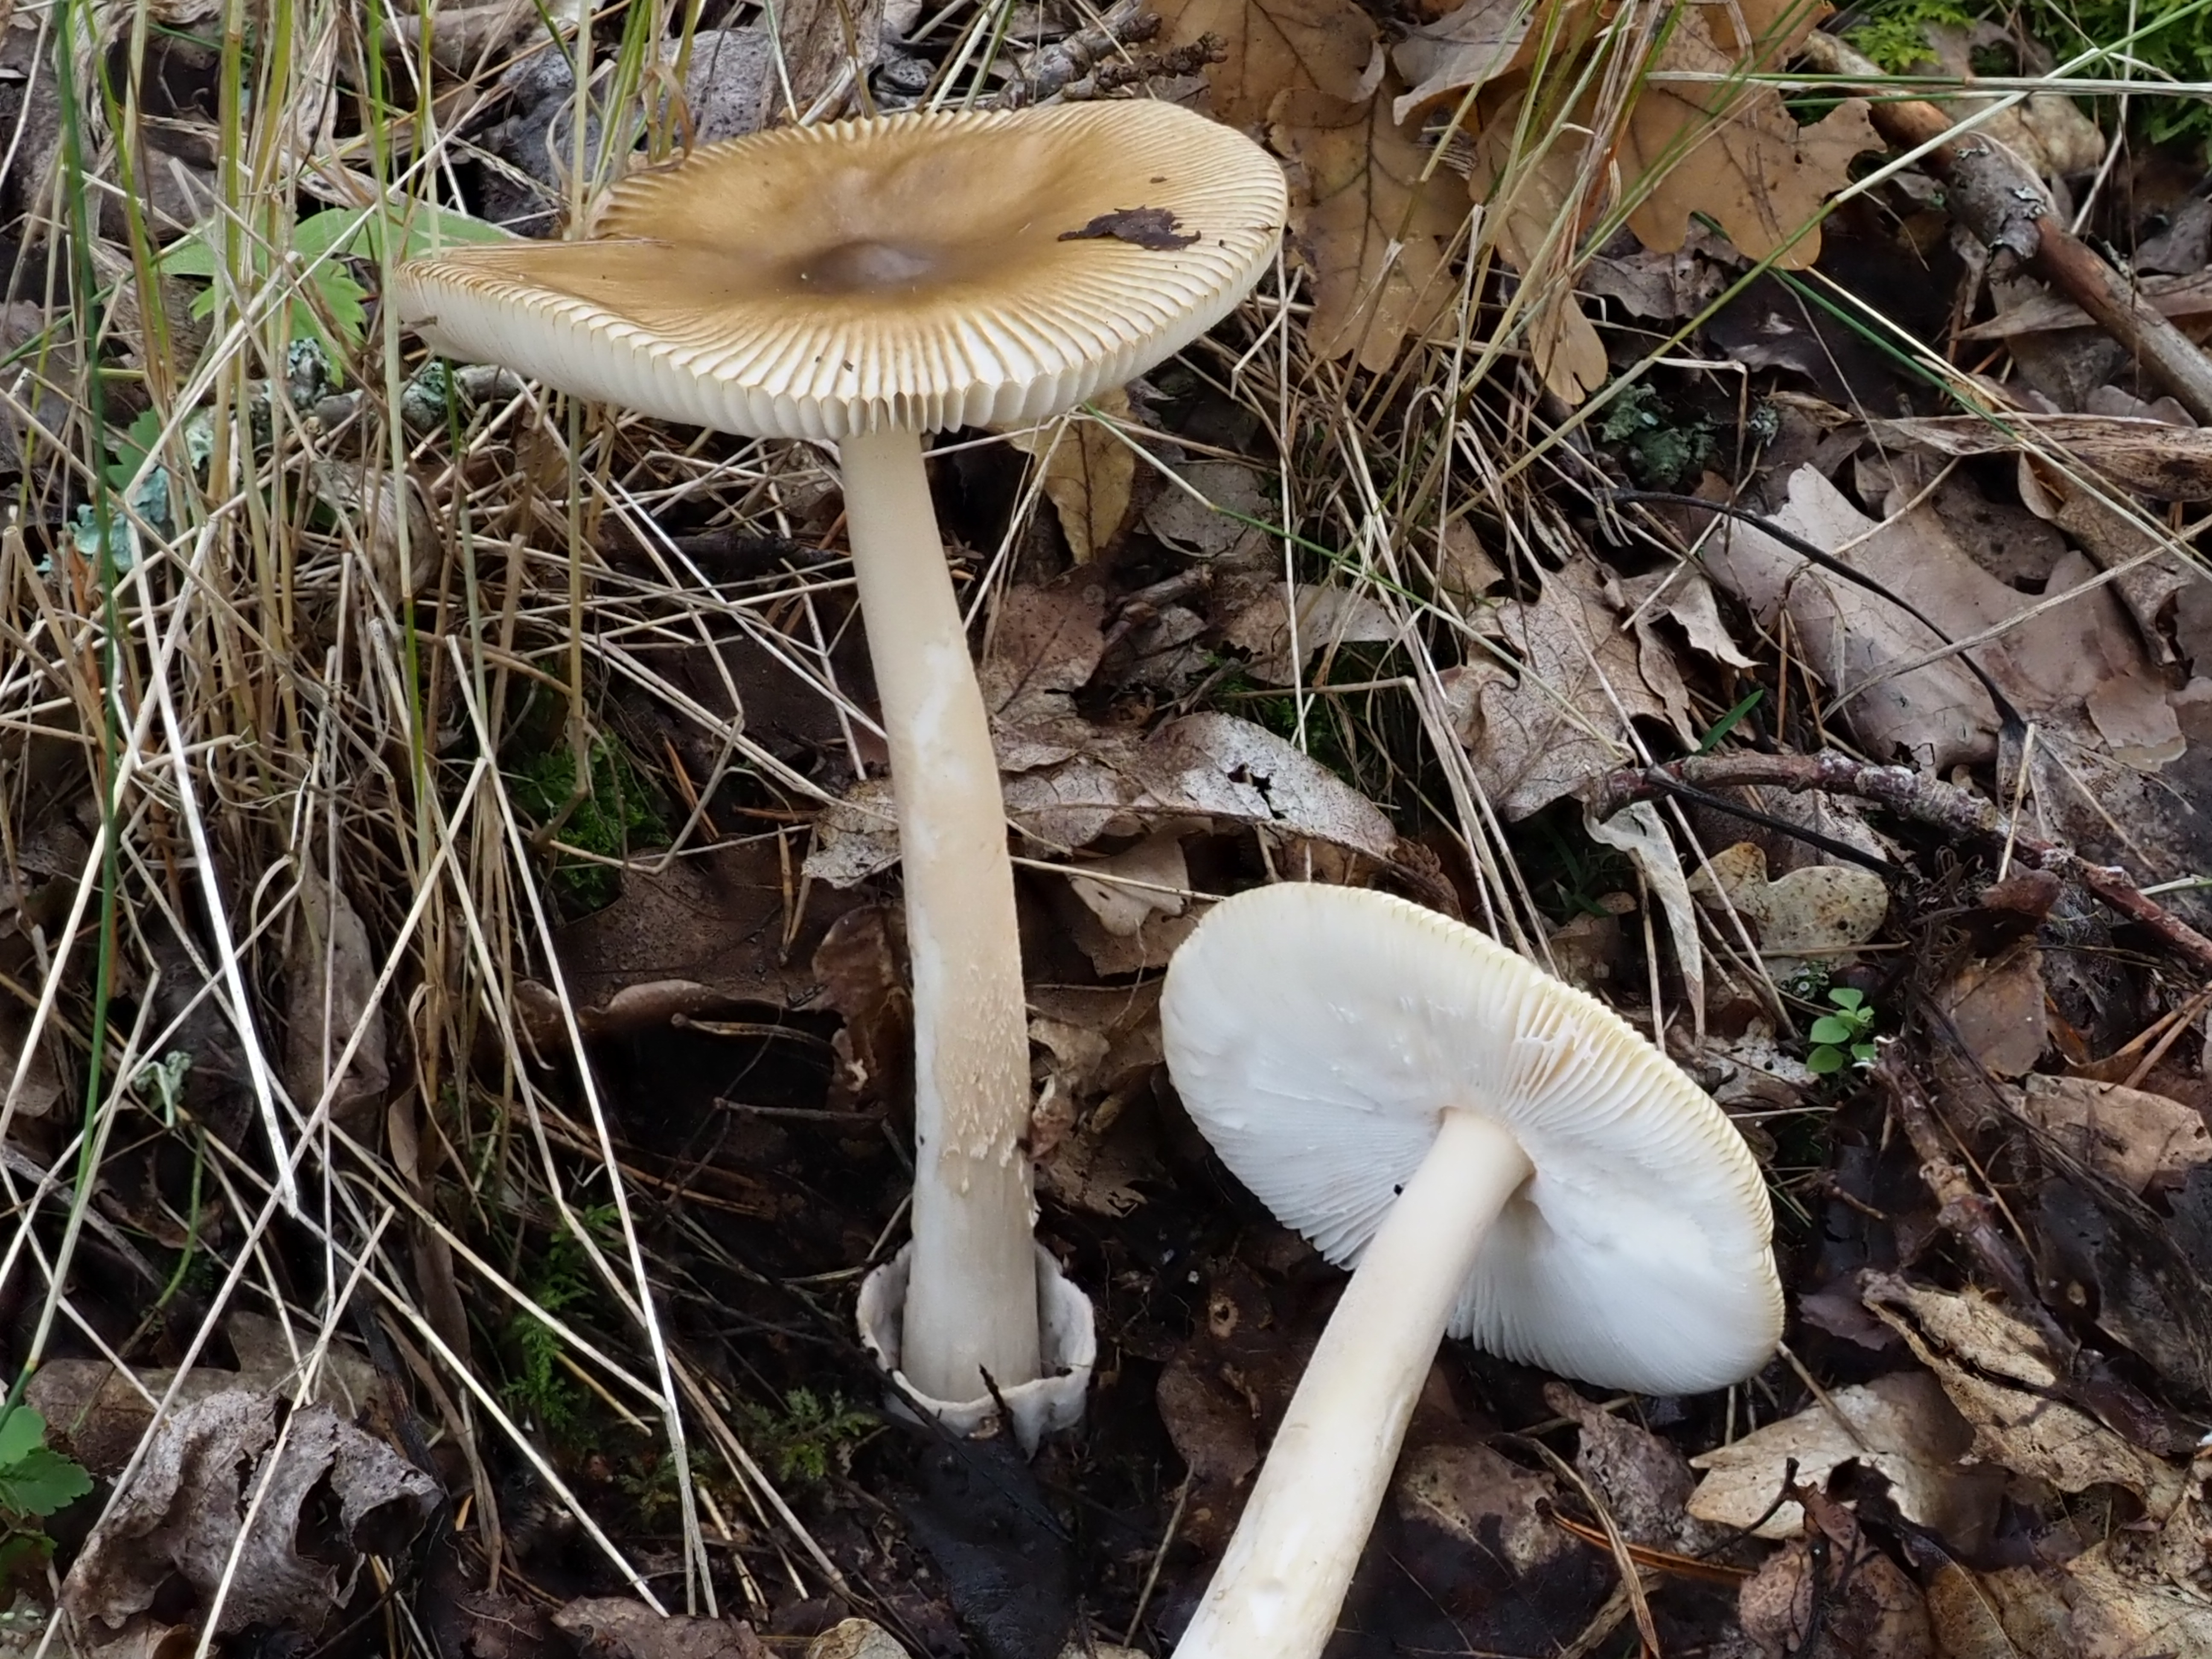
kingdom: Fungi
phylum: Basidiomycota
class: Agaricomycetes
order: Agaricales
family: Amanitaceae
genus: Amanita
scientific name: Amanita submembranacea
